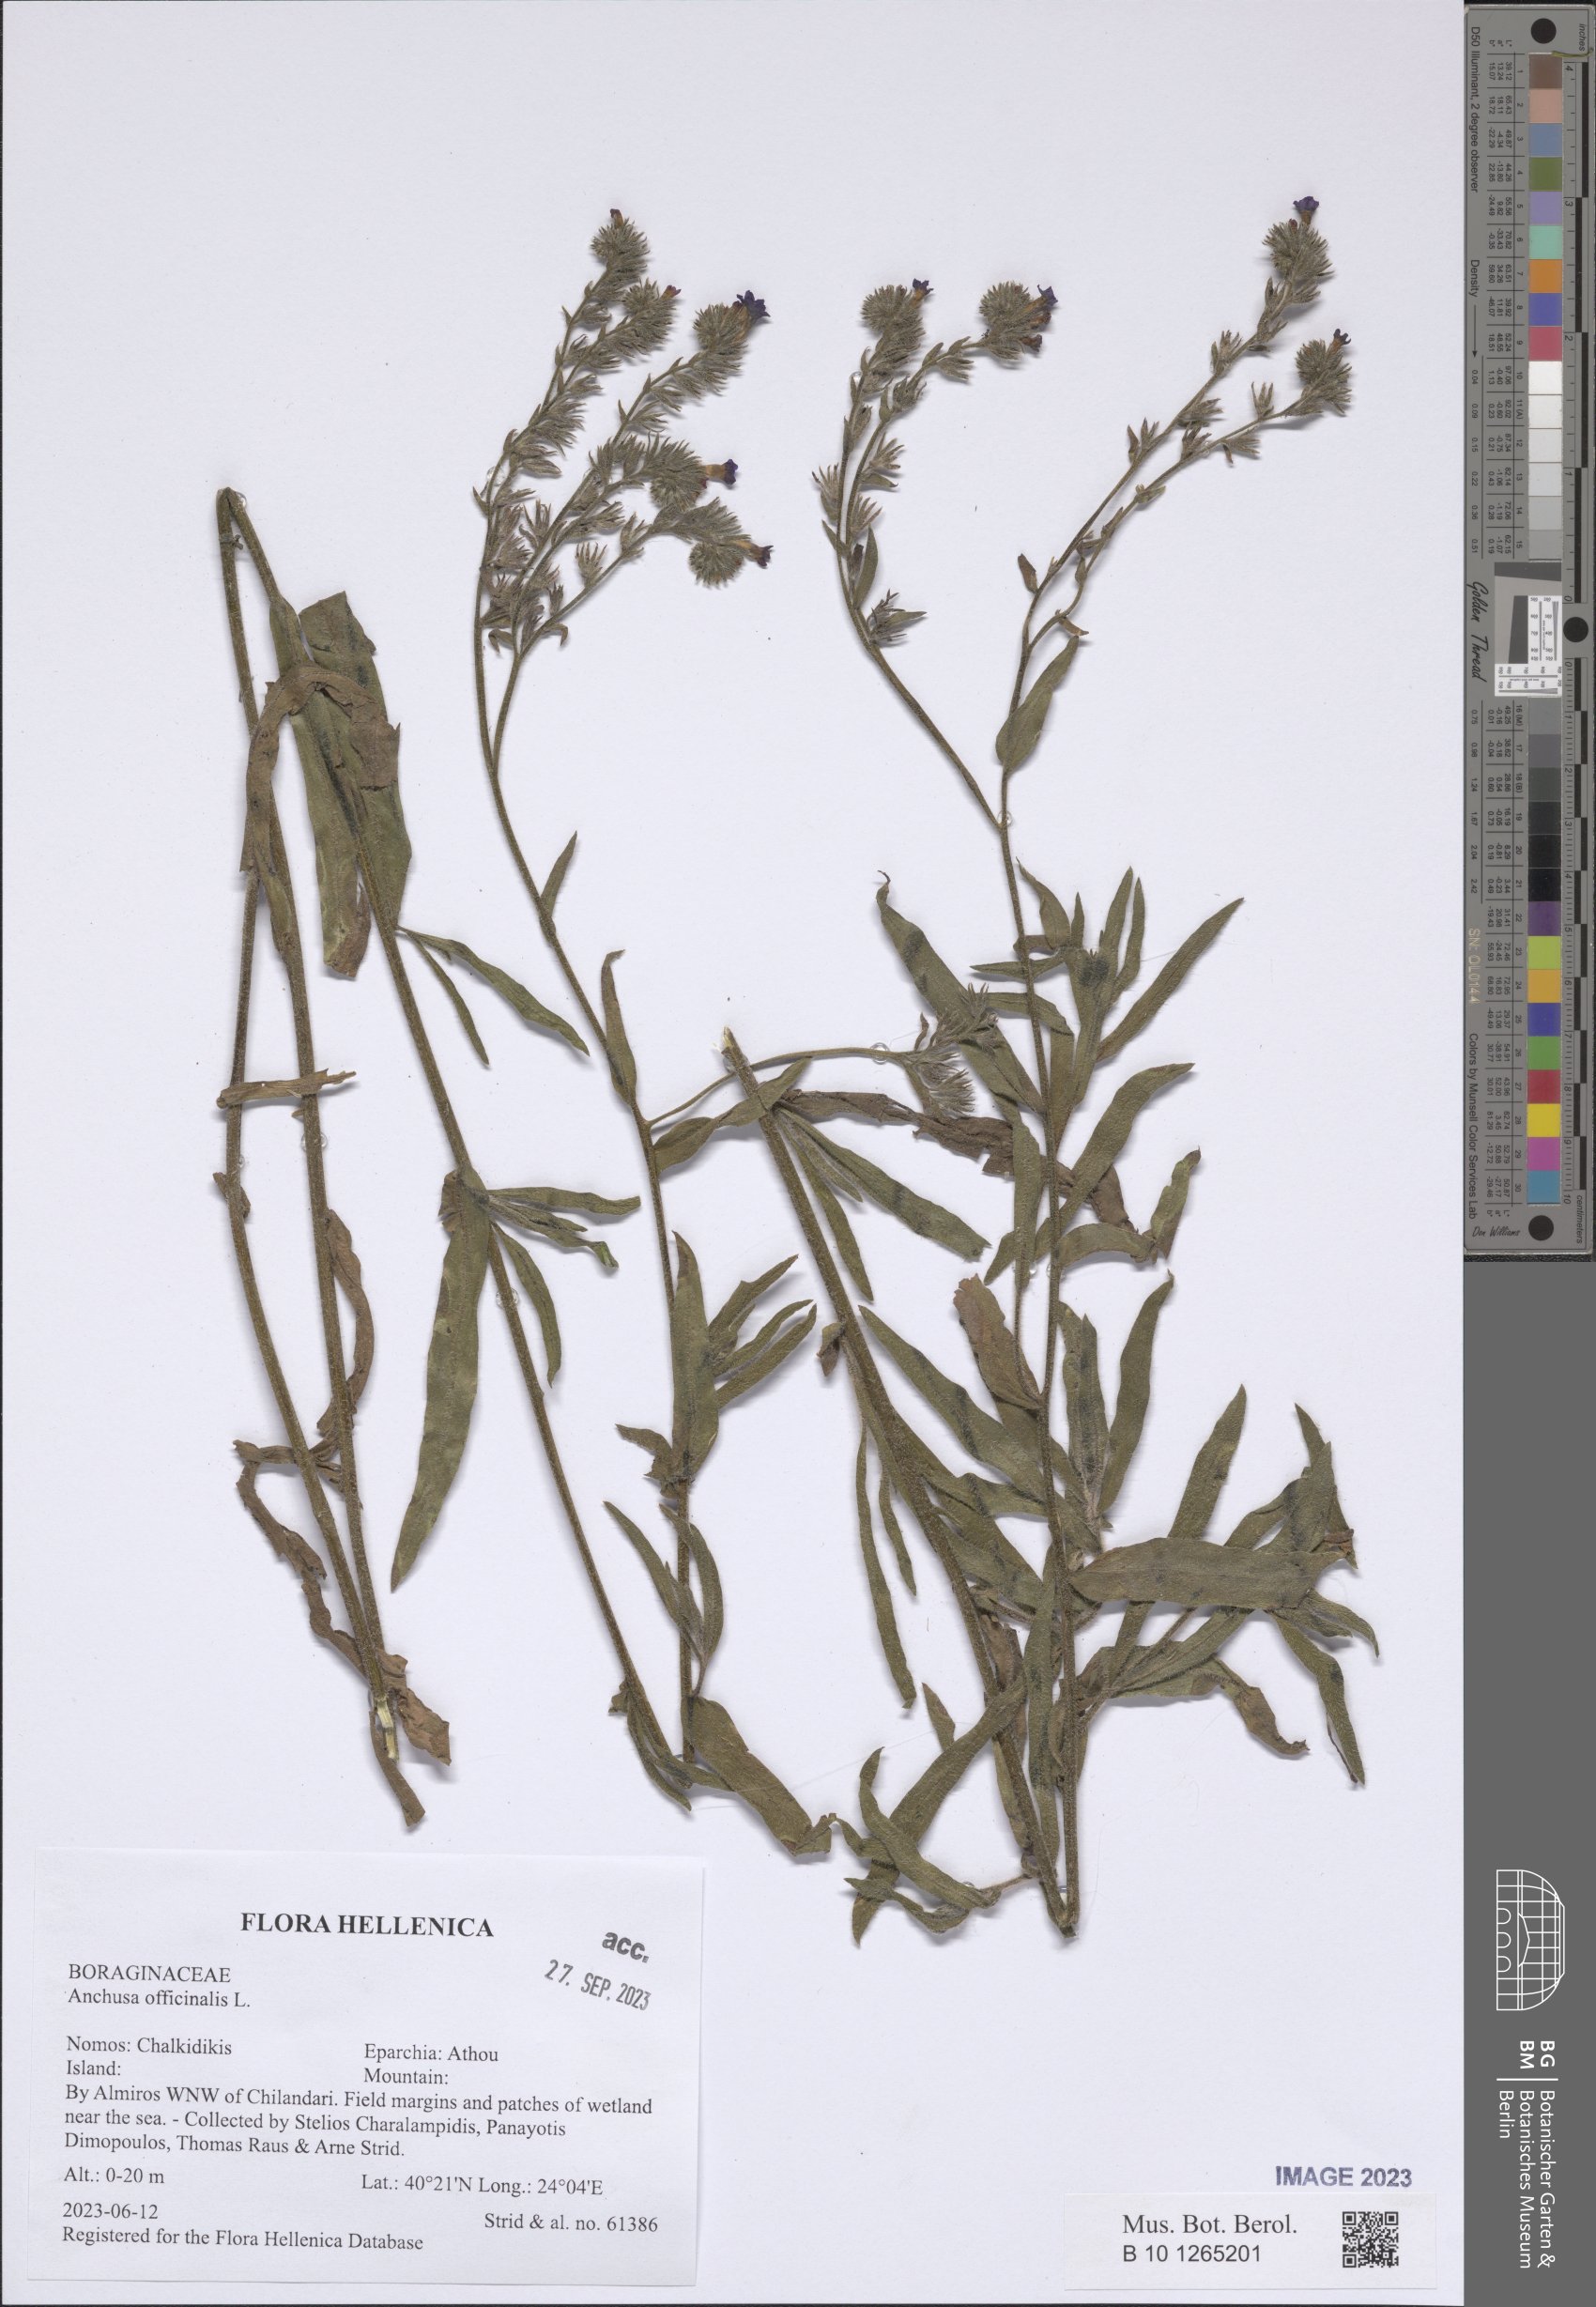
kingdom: Plantae
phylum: Tracheophyta
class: Magnoliopsida
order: Boraginales
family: Boraginaceae
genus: Anchusa
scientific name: Anchusa officinalis
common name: Alkanet
